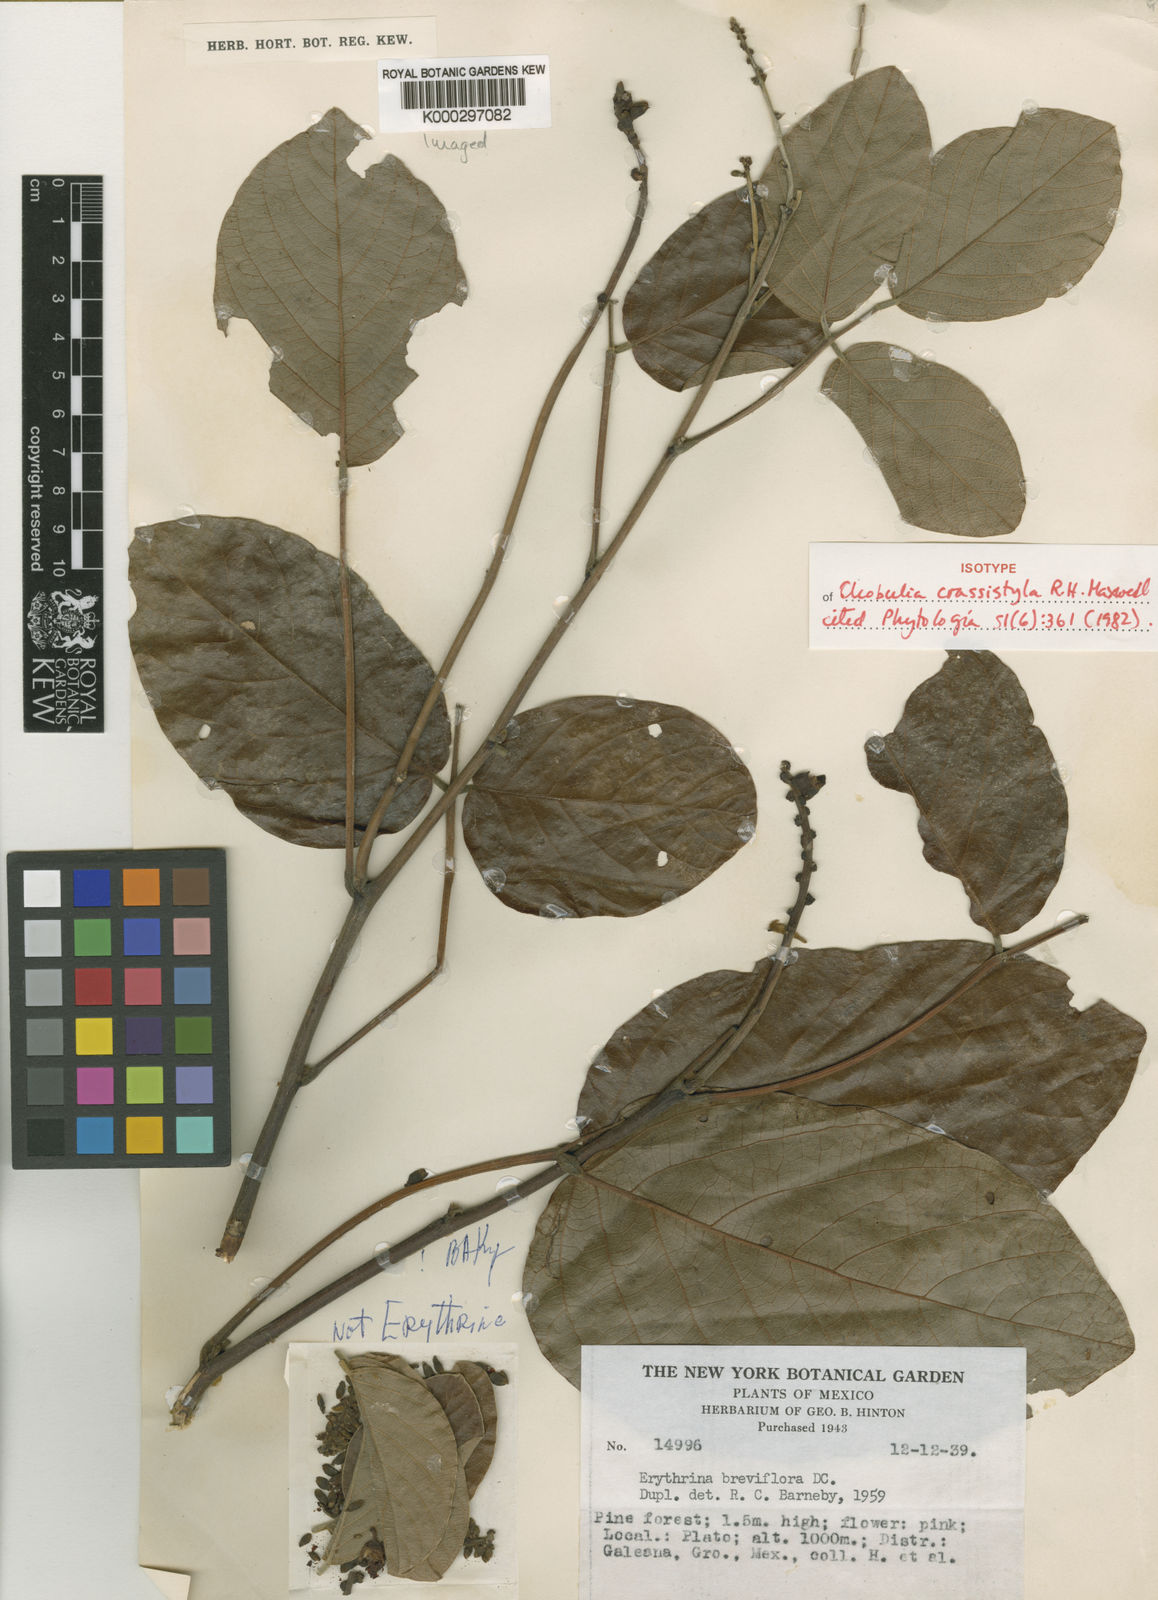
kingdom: Plantae
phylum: Tracheophyta
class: Magnoliopsida
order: Fabales
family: Fabaceae
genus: Cleobulia
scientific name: Cleobulia crassistyla
